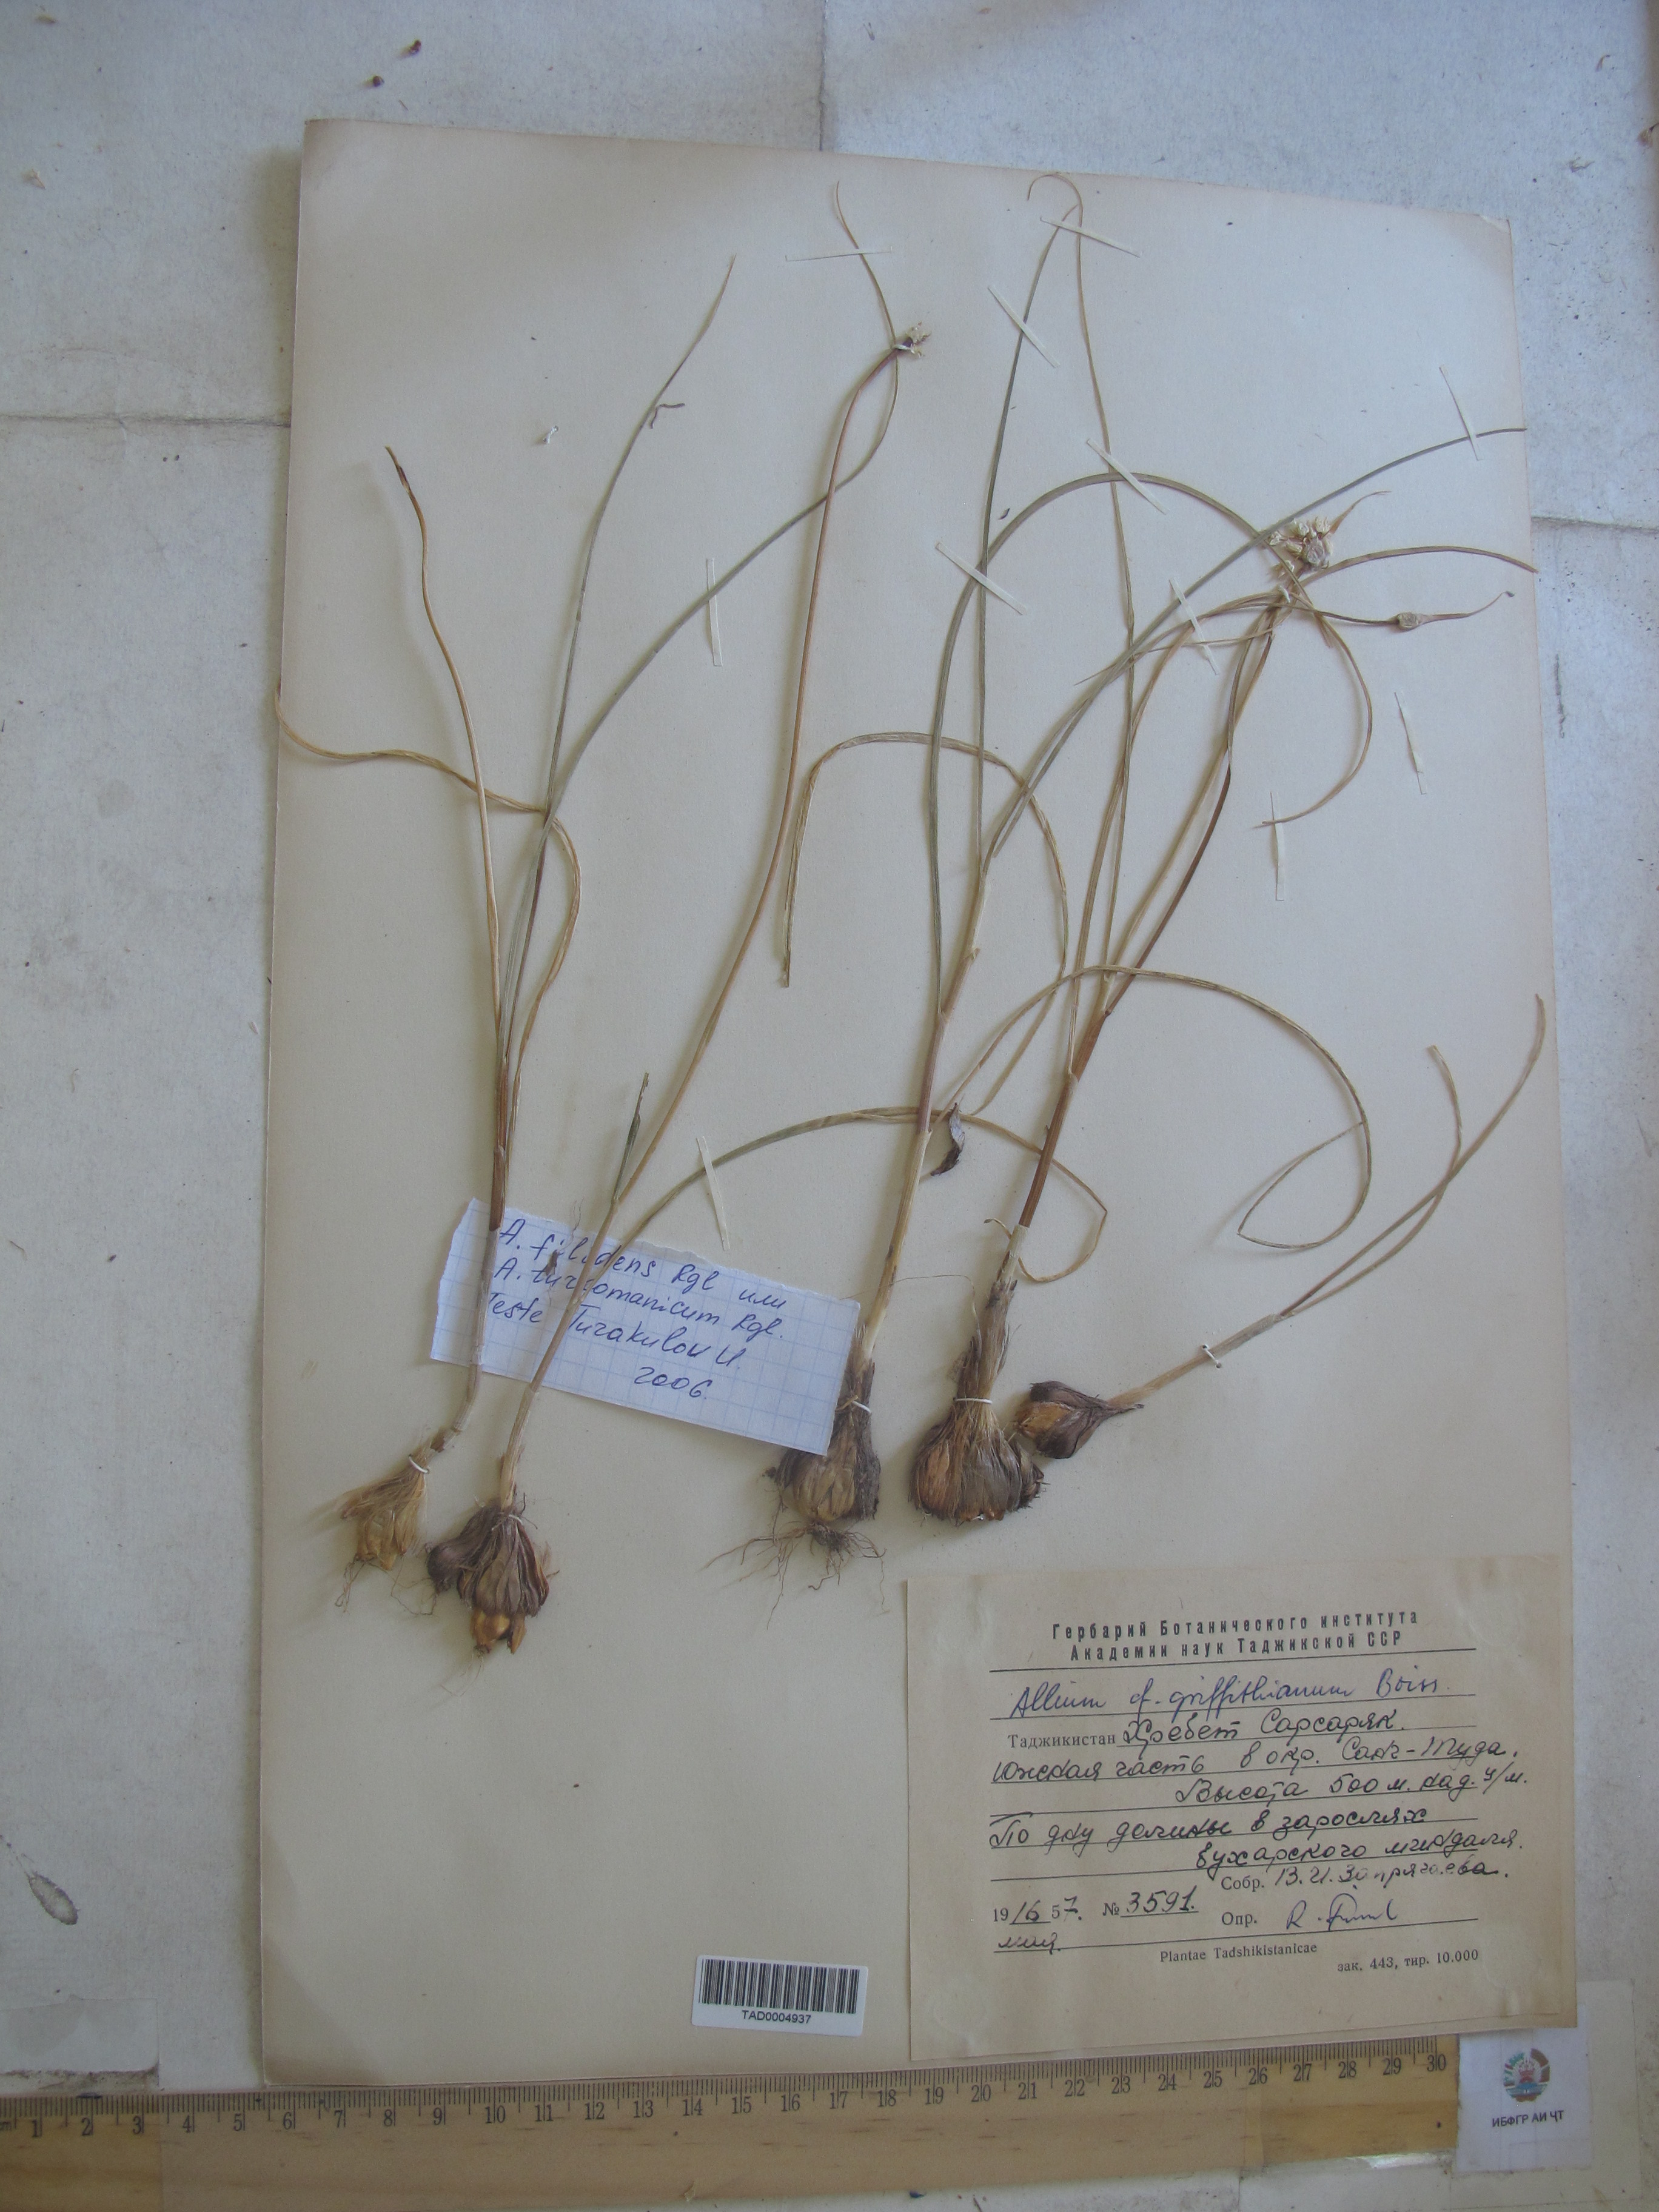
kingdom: Plantae
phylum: Tracheophyta
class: Liliopsida
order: Asparagales
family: Amaryllidaceae
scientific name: Amaryllidaceae
